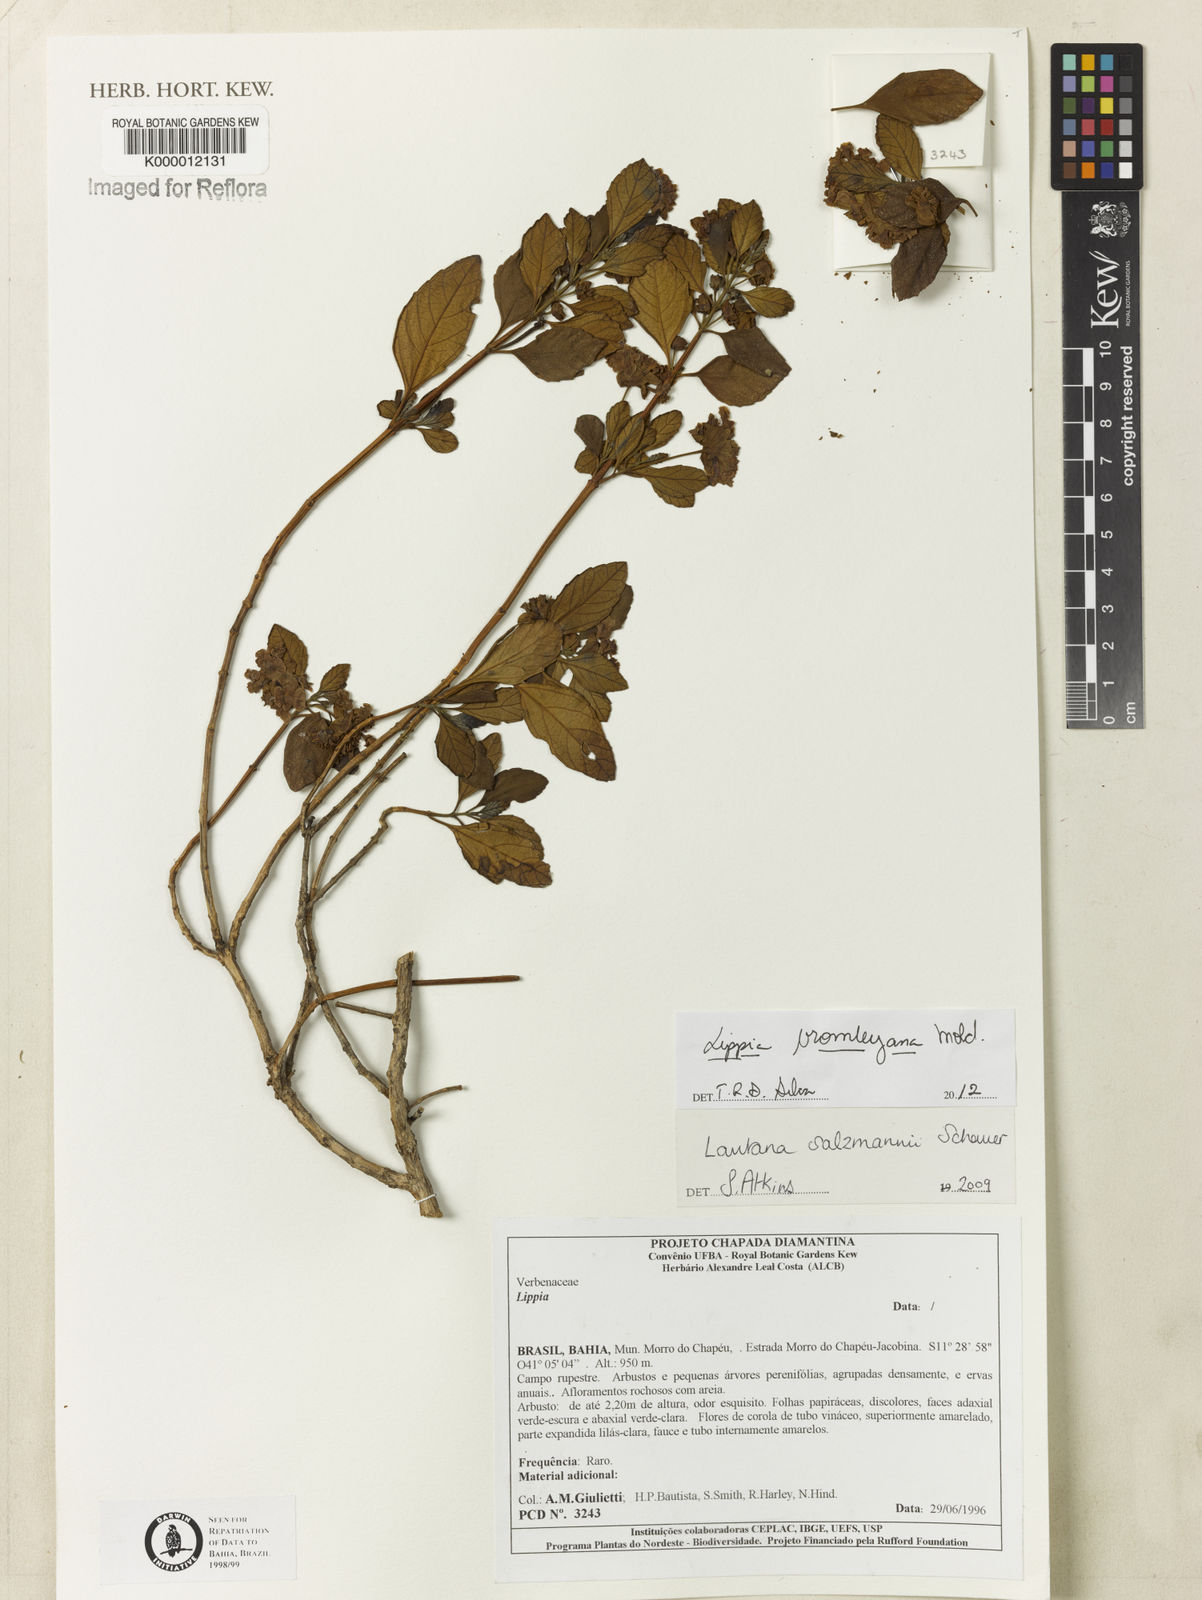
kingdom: Plantae
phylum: Tracheophyta
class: Magnoliopsida
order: Lamiales
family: Verbenaceae
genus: Lippia
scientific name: Lippia bromleyana
